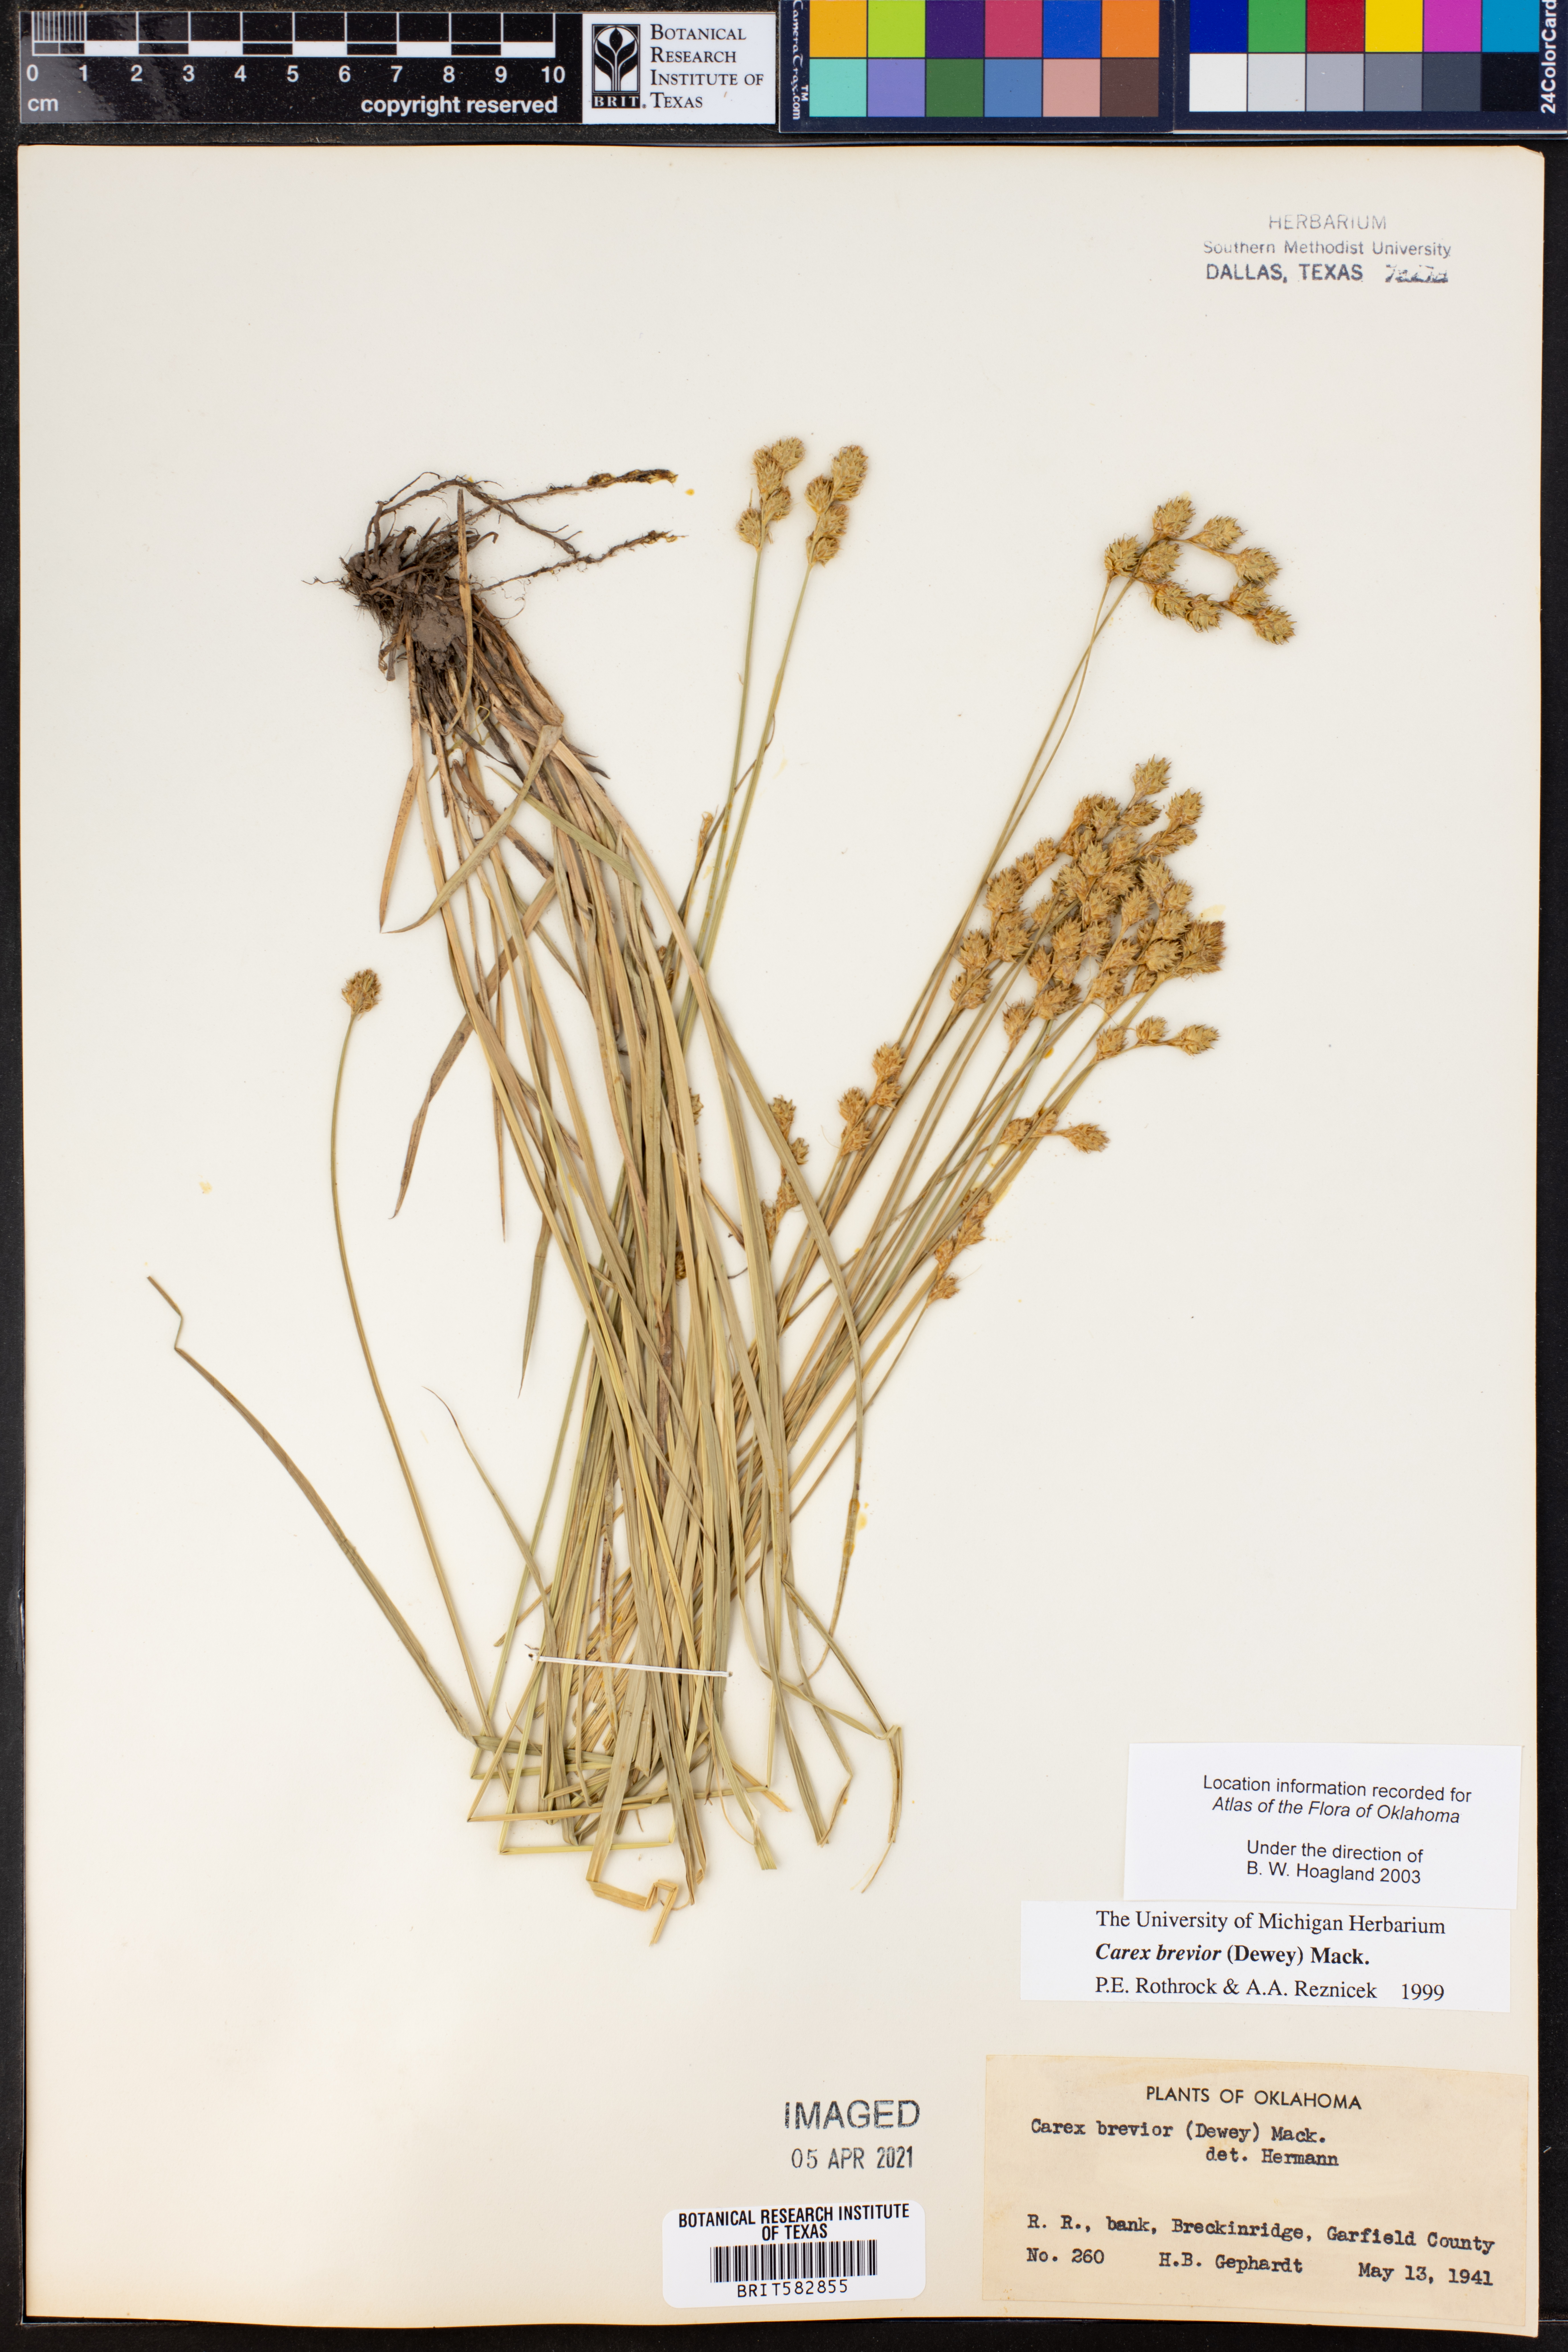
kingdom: Plantae
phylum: Tracheophyta
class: Liliopsida
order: Poales
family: Cyperaceae
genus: Carex
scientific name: Carex brevior
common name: Brevior sedge
